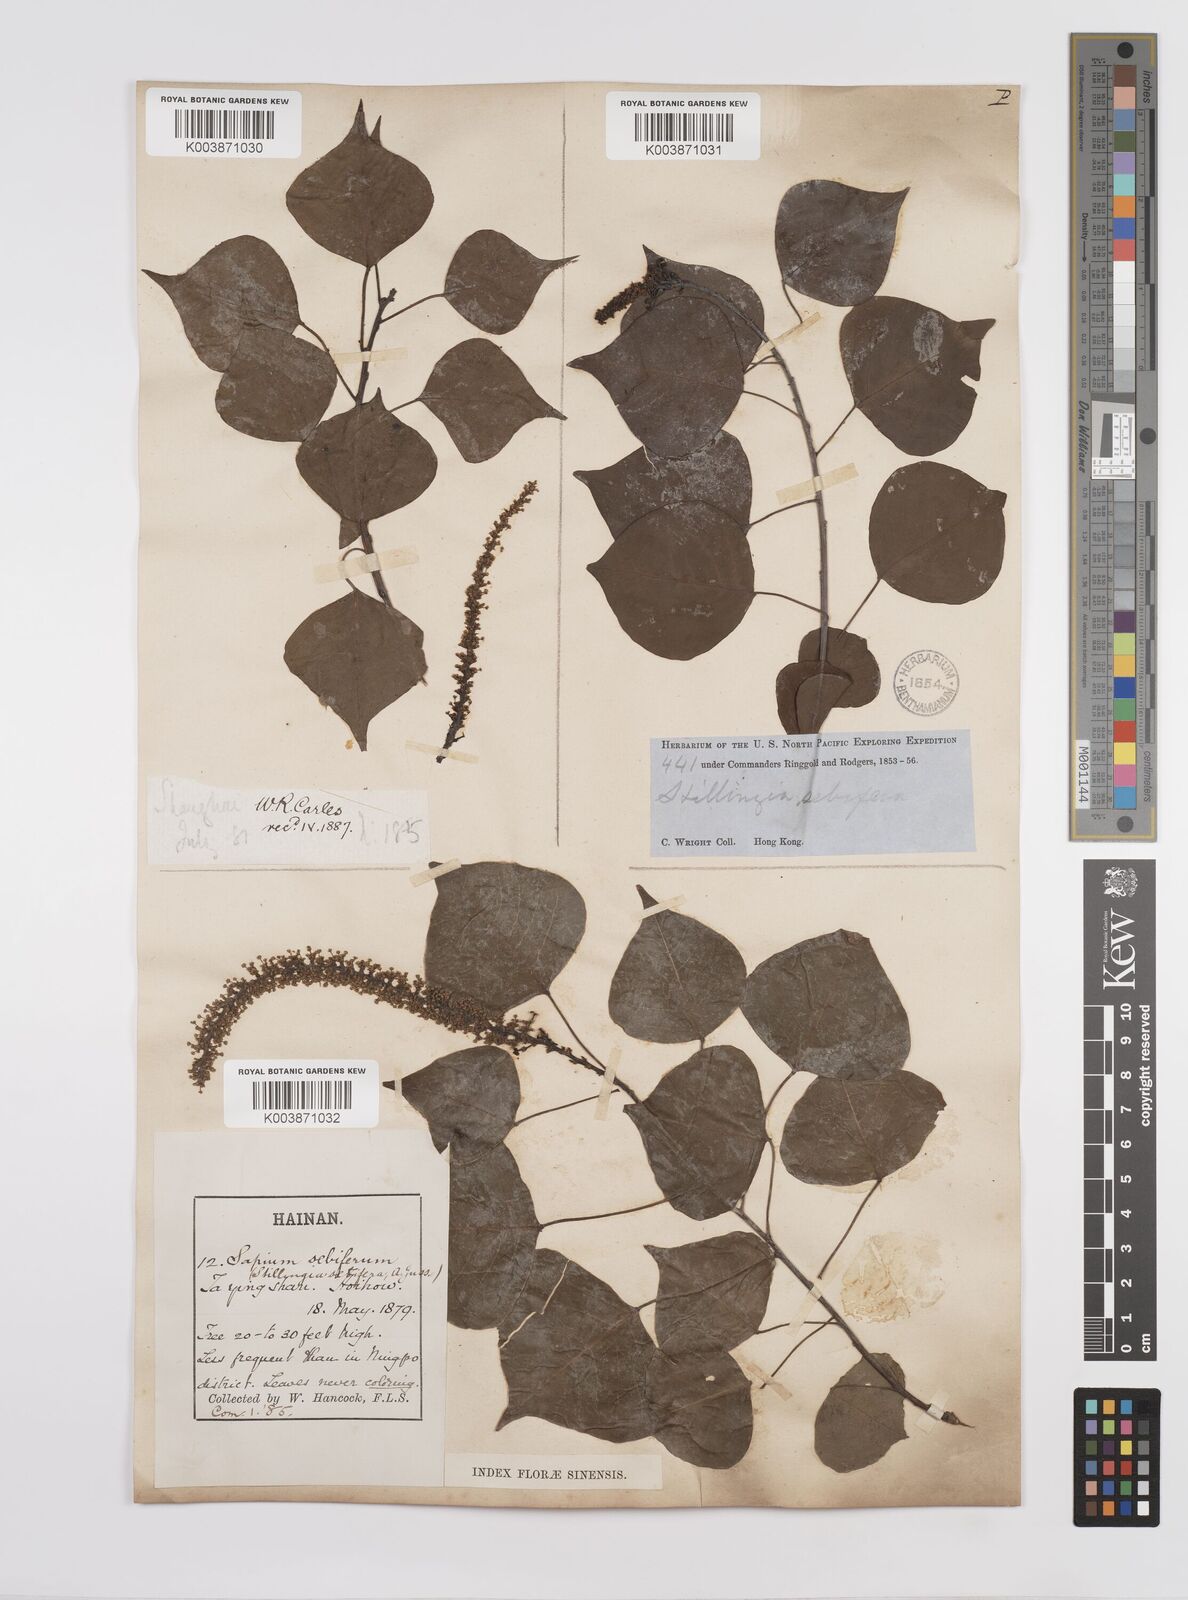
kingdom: Plantae
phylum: Tracheophyta
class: Magnoliopsida
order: Malpighiales
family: Euphorbiaceae
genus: Triadica
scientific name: Triadica sebifera
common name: Chinese tallow
